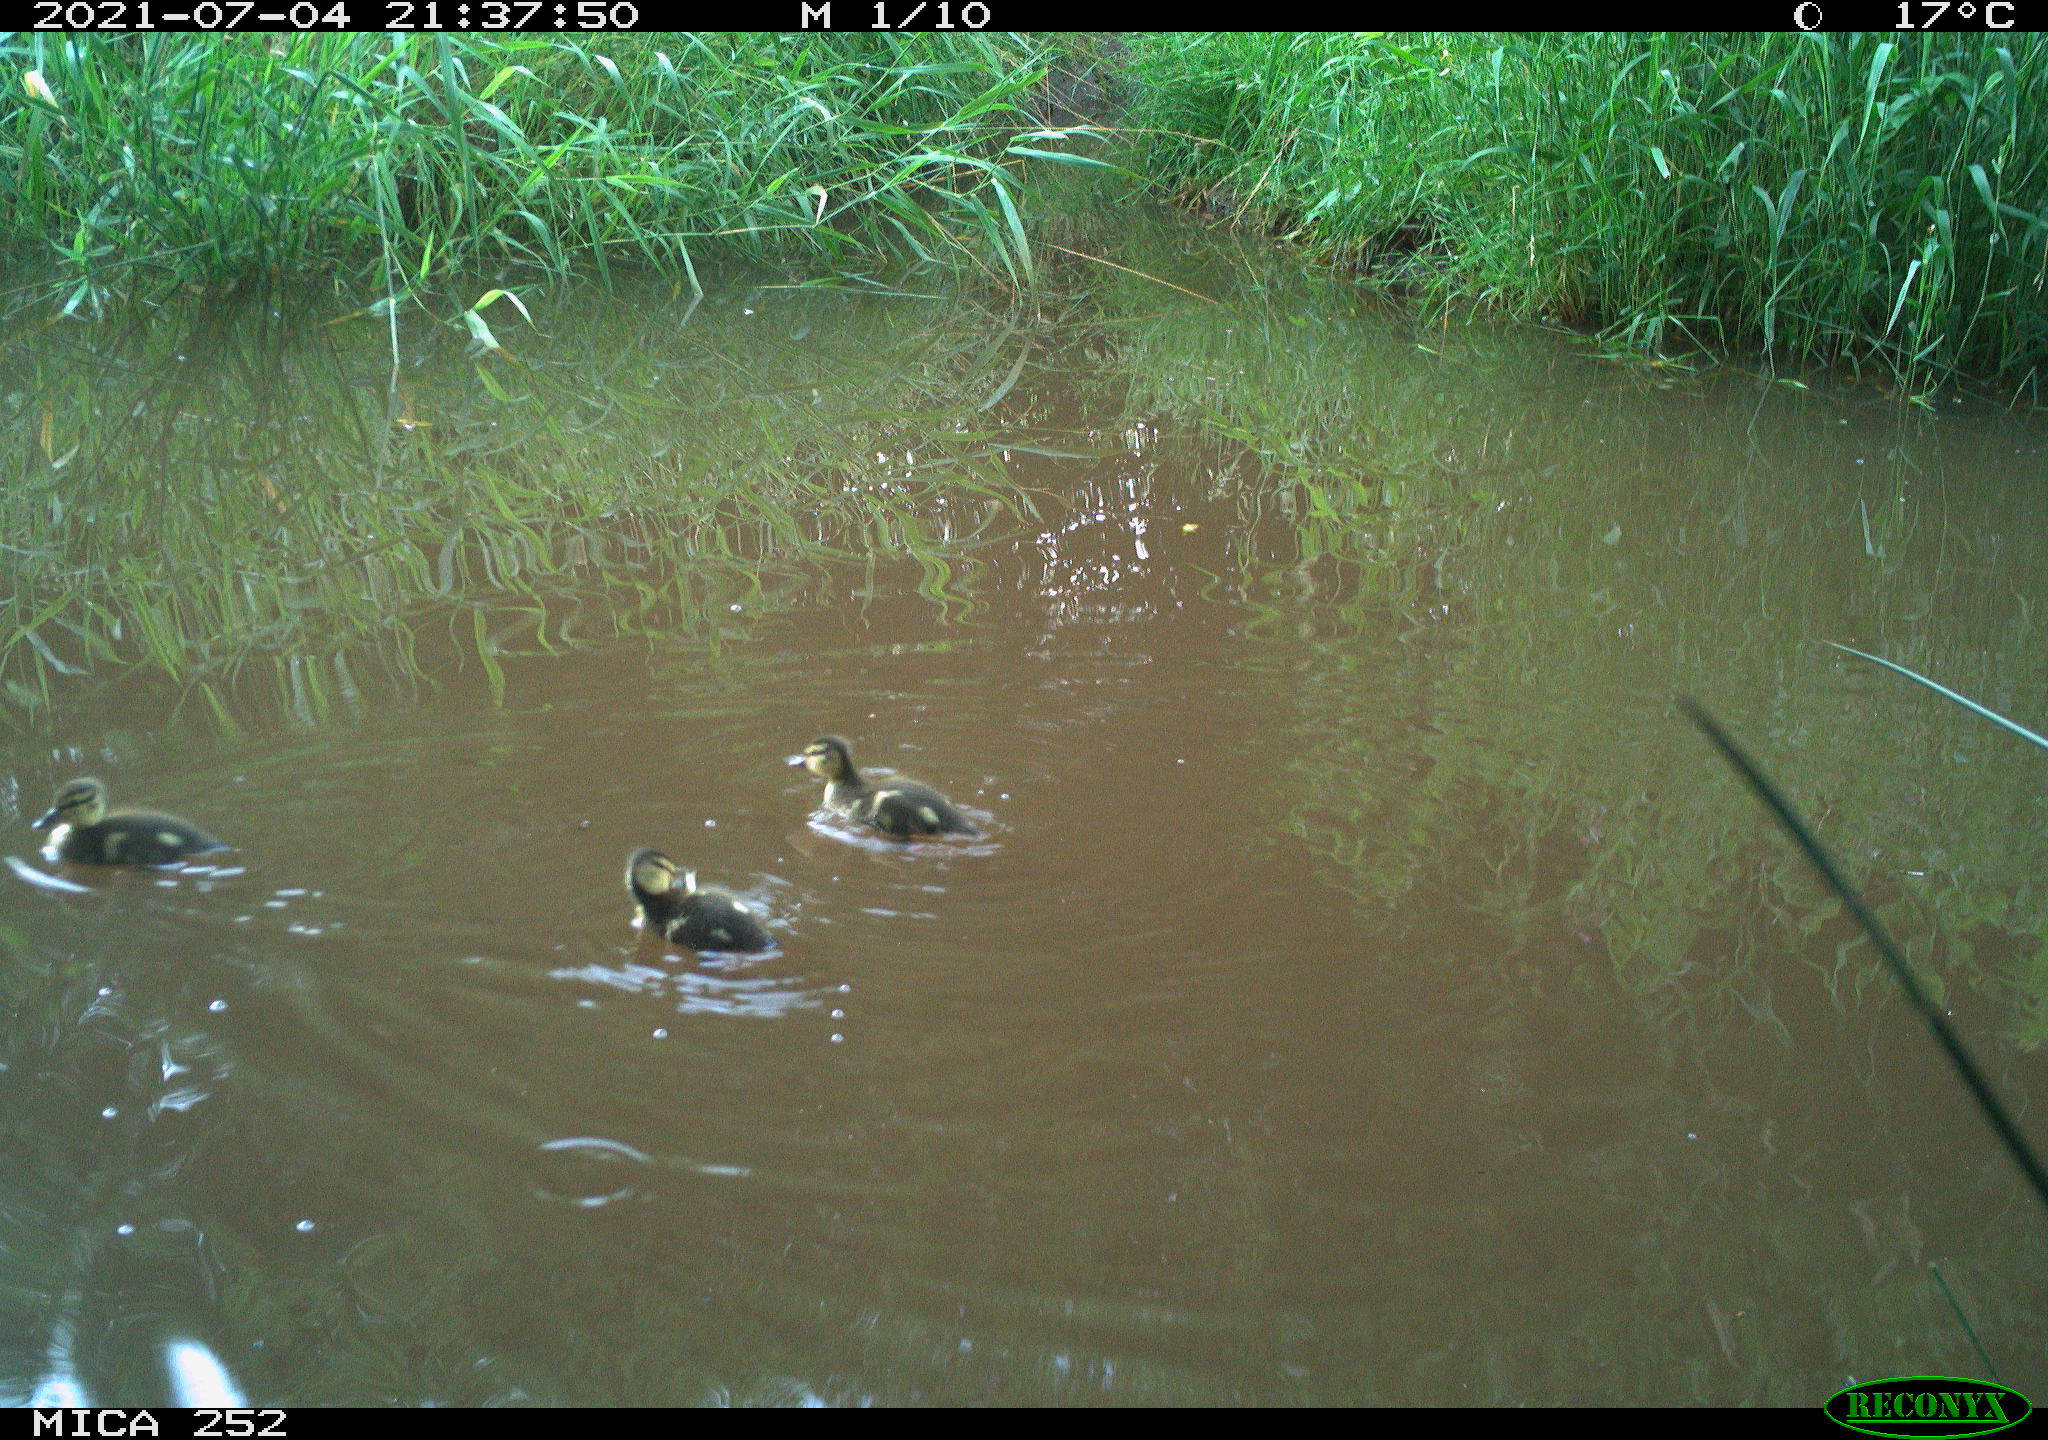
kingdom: Animalia
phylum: Chordata
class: Aves
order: Anseriformes
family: Anatidae
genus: Anas
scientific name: Anas
